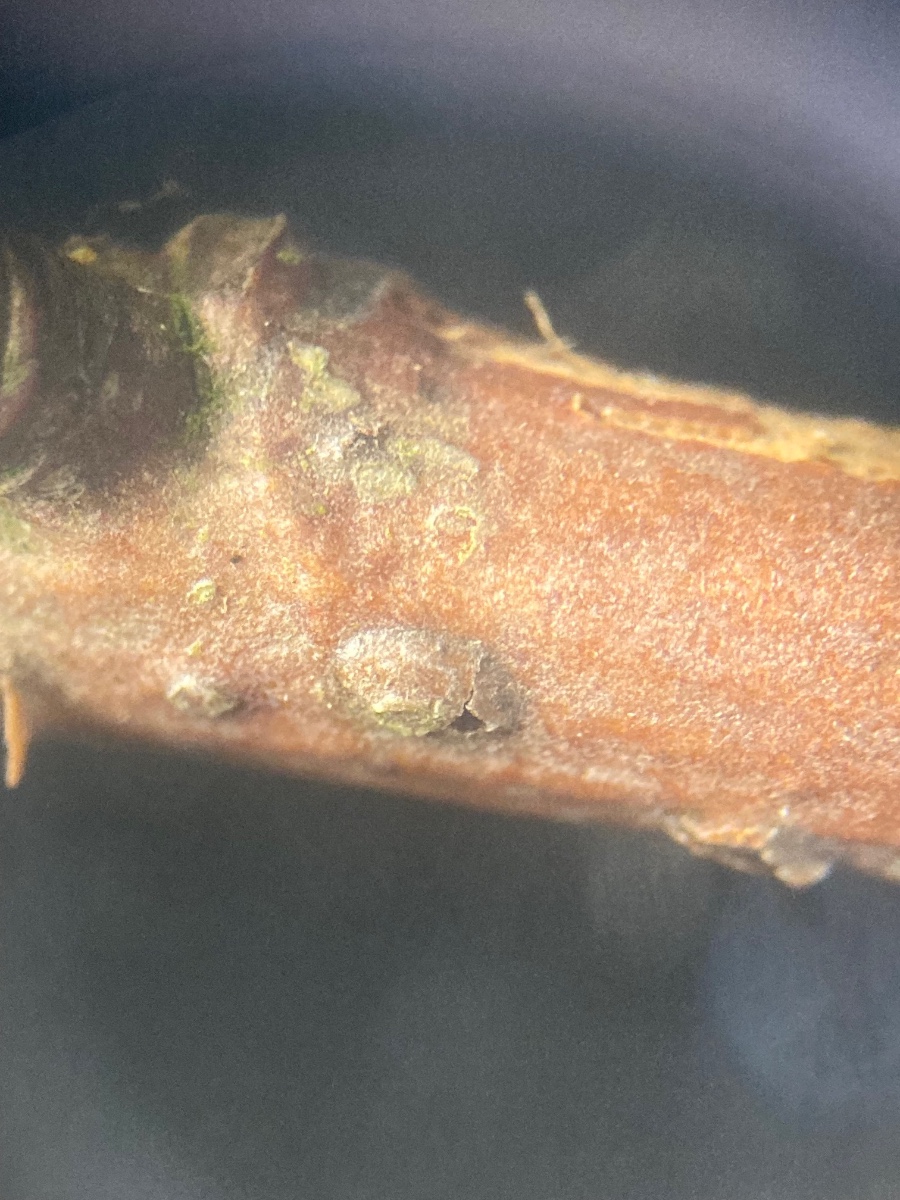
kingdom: Fungi
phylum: Ascomycota
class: Sordariomycetes
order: Diaporthales
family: Asterosporiaceae
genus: Asterosporium
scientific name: Asterosporium asterospermum
